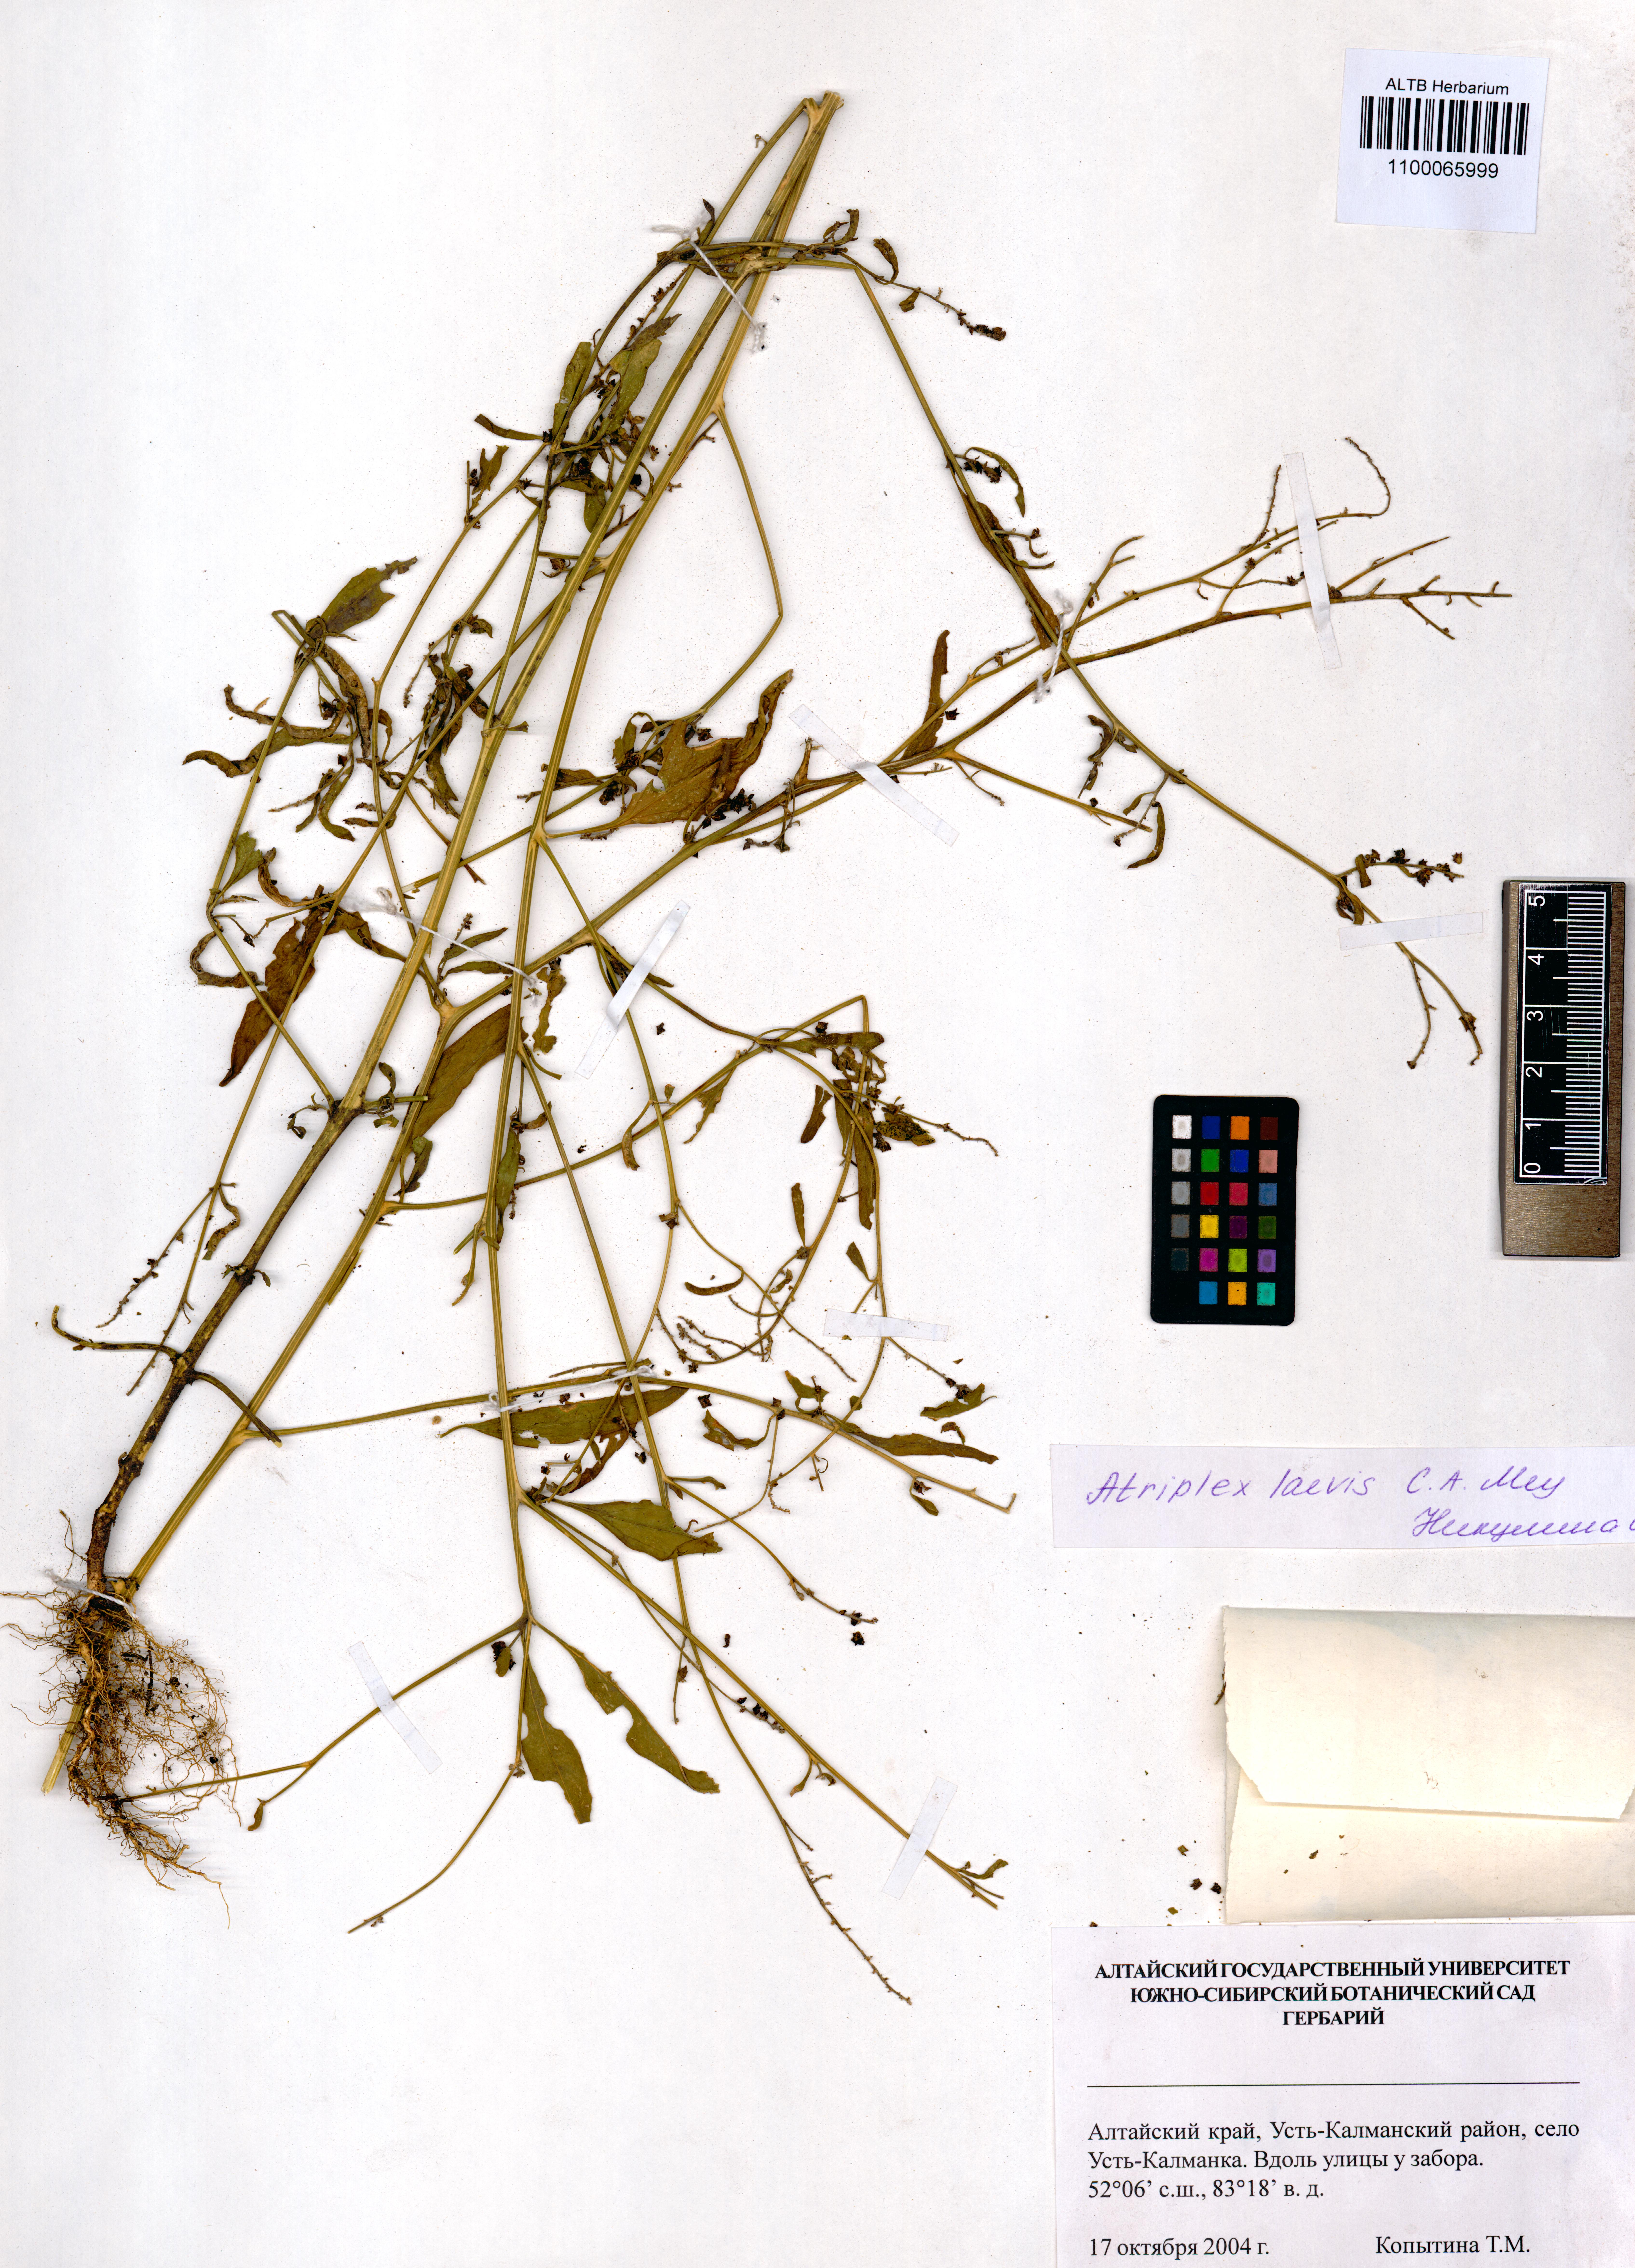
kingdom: Plantae
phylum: Tracheophyta
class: Magnoliopsida
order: Caryophyllales
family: Amaranthaceae
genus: Atriplex
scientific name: Atriplex laevis
